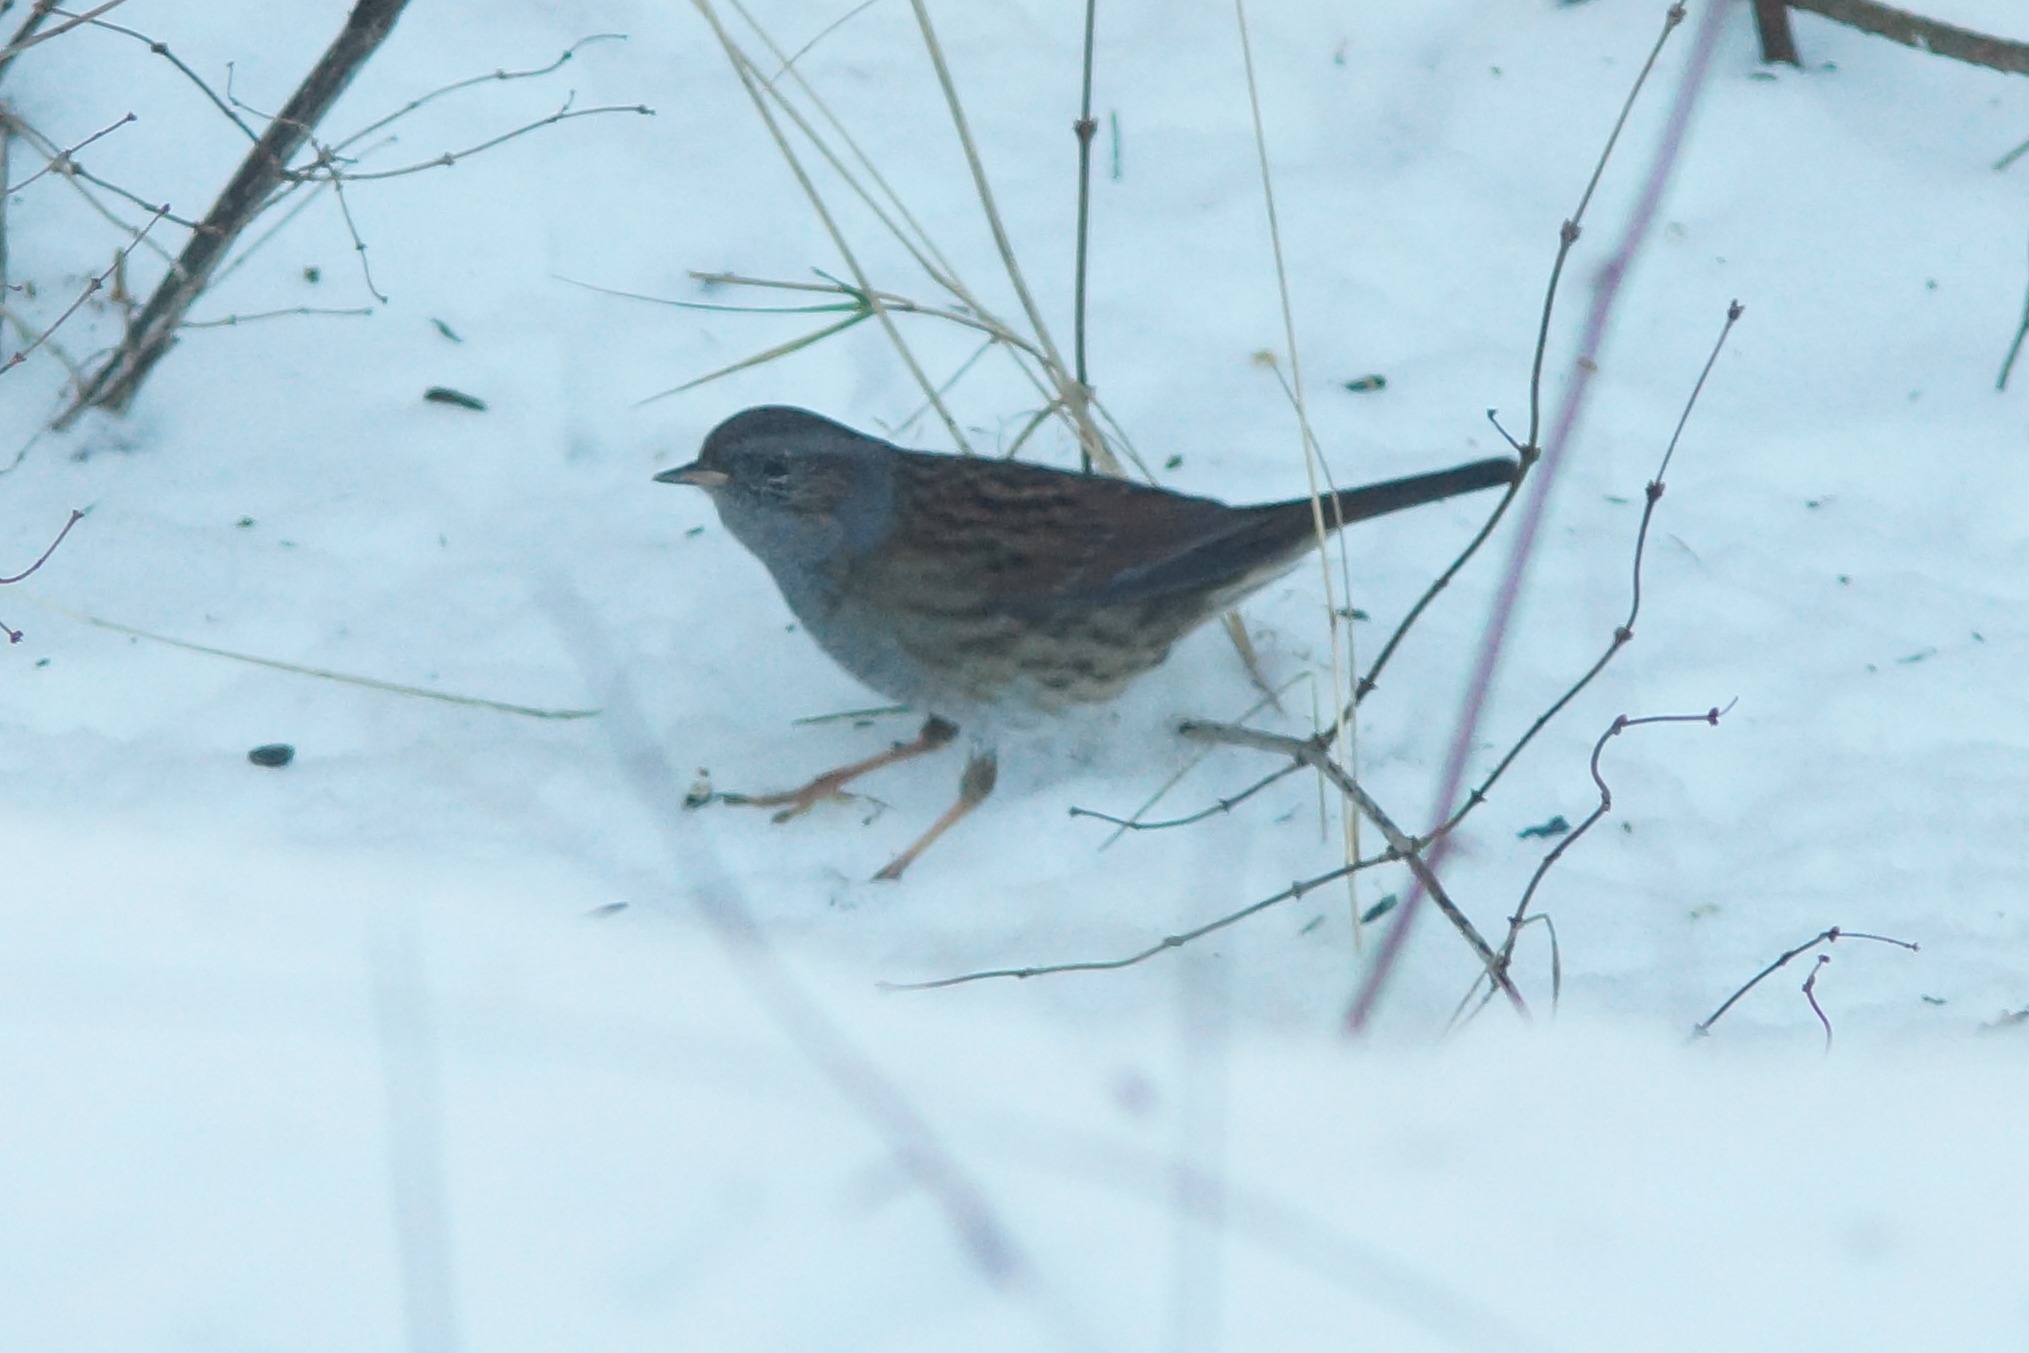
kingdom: Animalia
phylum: Chordata
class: Aves
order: Passeriformes
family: Prunellidae
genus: Prunella
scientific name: Prunella modularis
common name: Jernspurv
